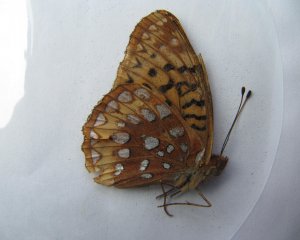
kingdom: Animalia
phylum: Arthropoda
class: Insecta
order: Lepidoptera
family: Nymphalidae
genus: Speyeria
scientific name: Speyeria cybele
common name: Great Spangled Fritillary
